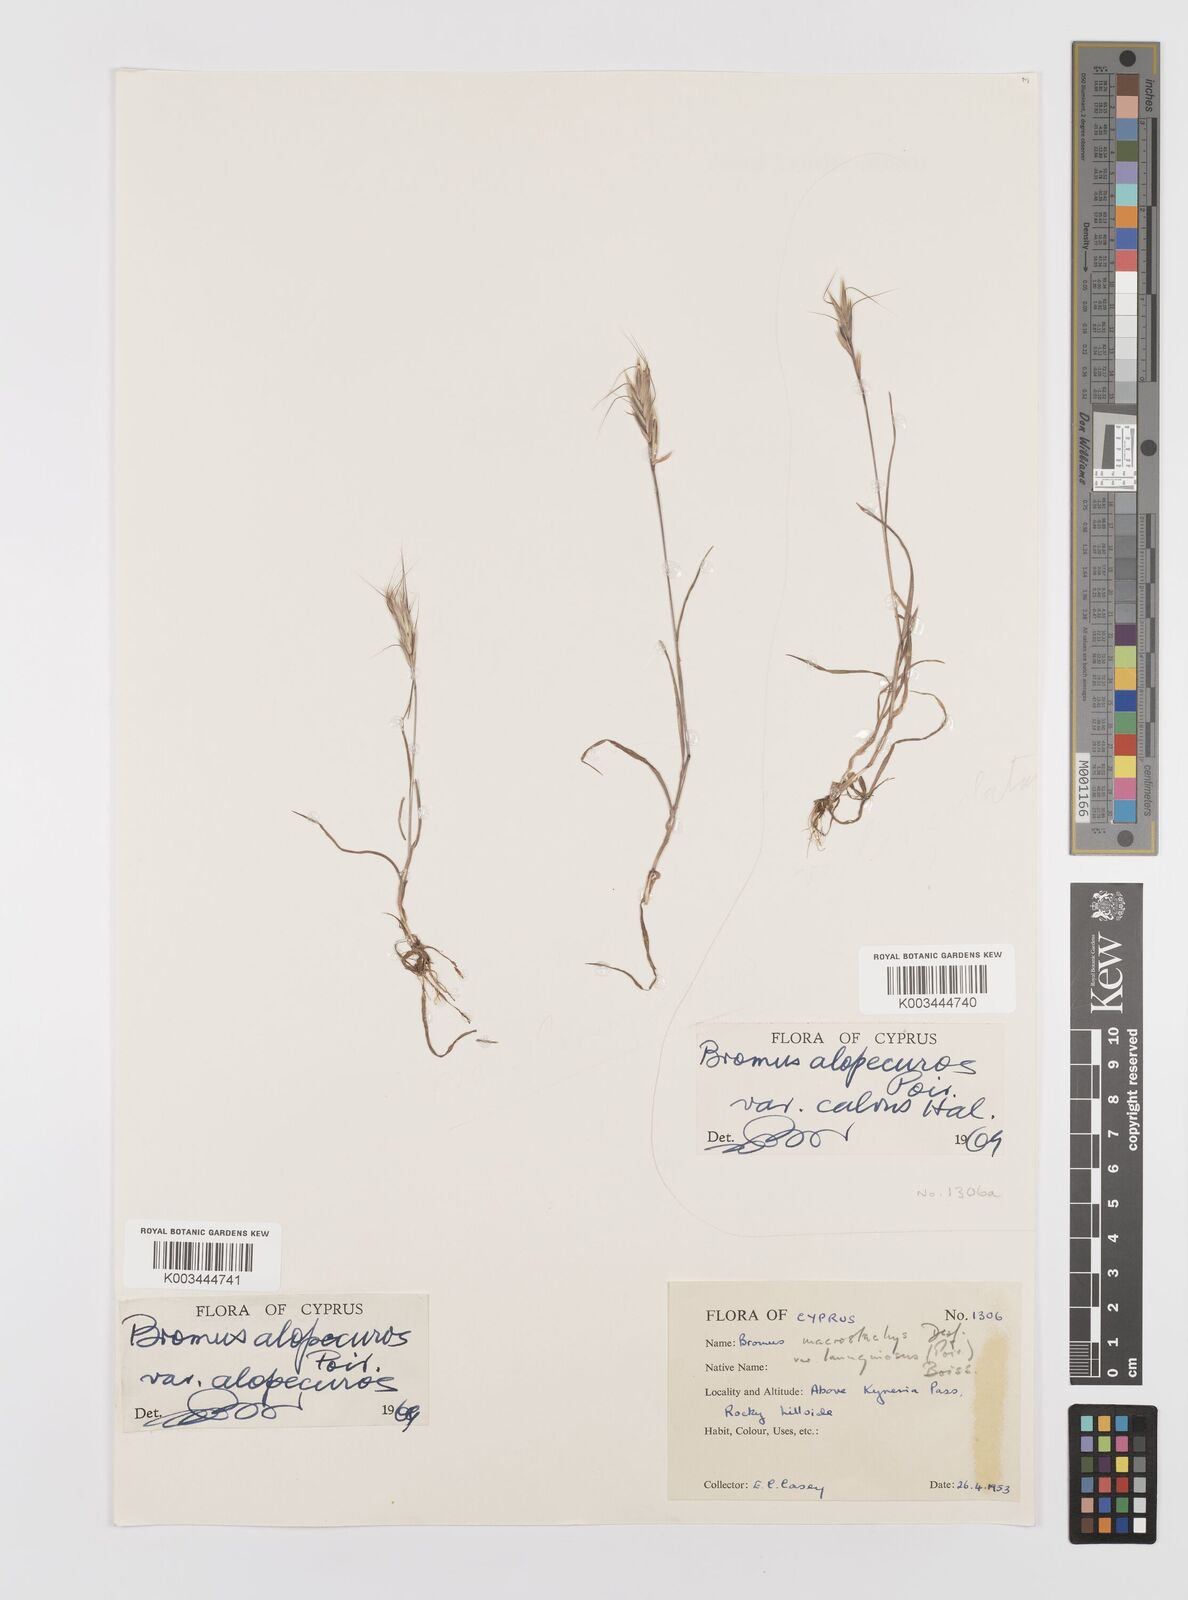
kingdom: Plantae
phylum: Tracheophyta
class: Liliopsida
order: Poales
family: Poaceae
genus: Bromus
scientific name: Bromus alopecuros
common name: Weedy brome
